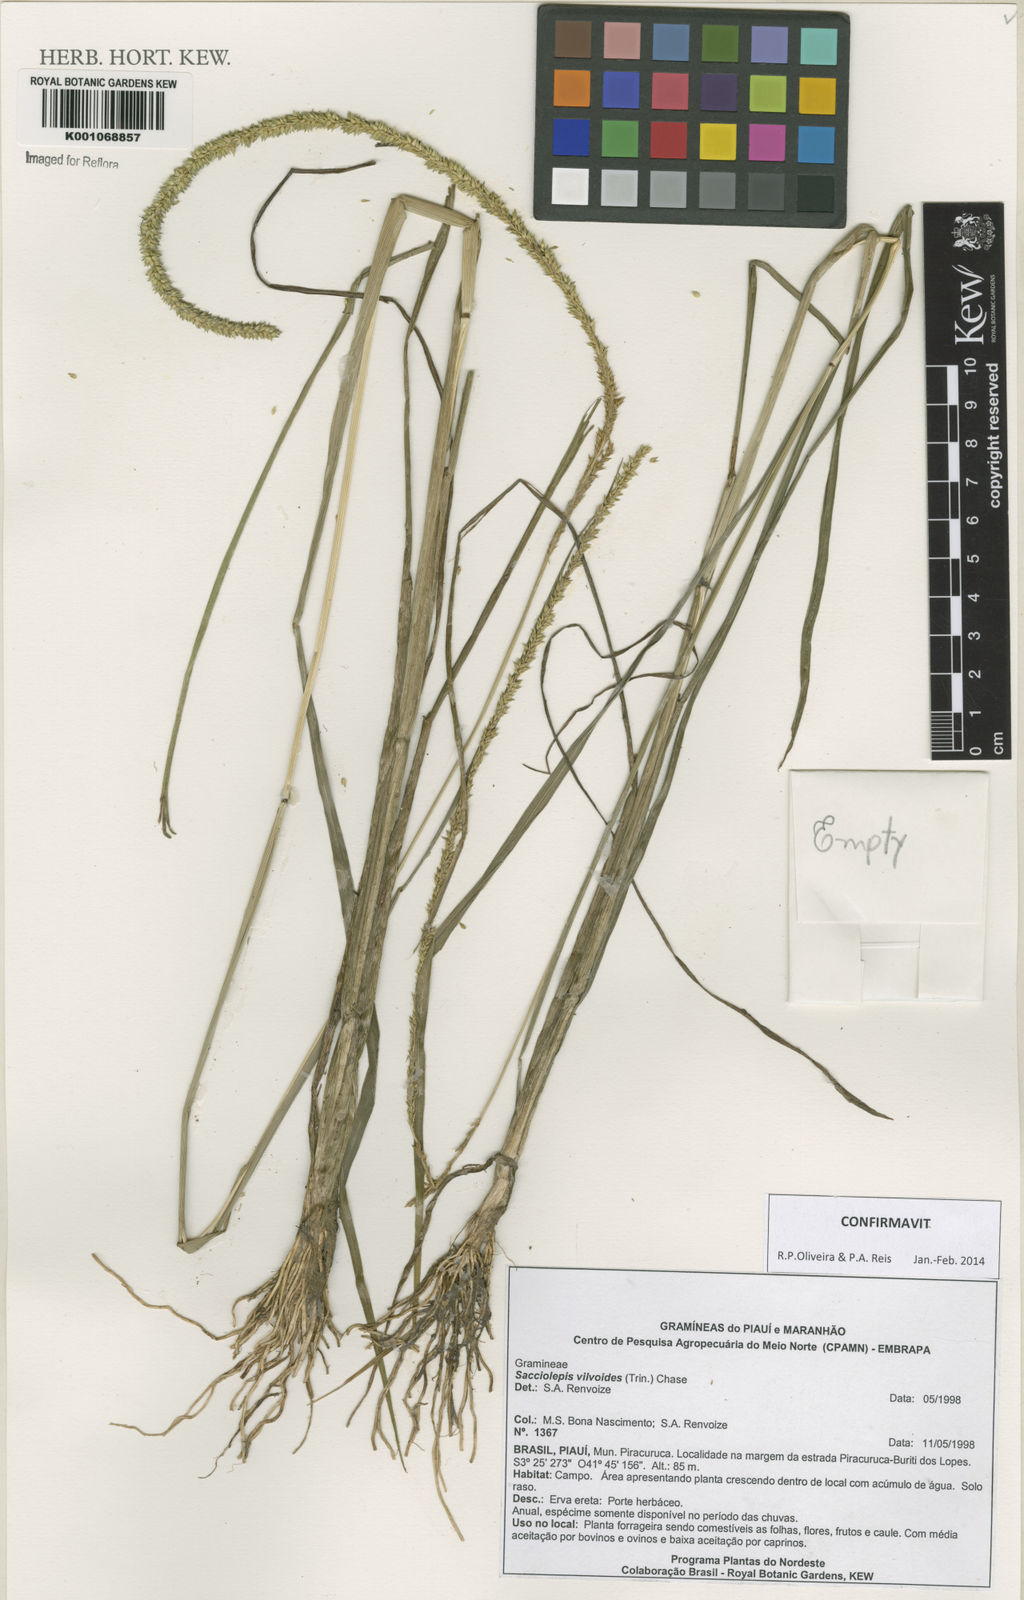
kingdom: Plantae
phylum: Tracheophyta
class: Liliopsida
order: Poales
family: Poaceae
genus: Sacciolepis
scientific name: Sacciolepis vilvoides
